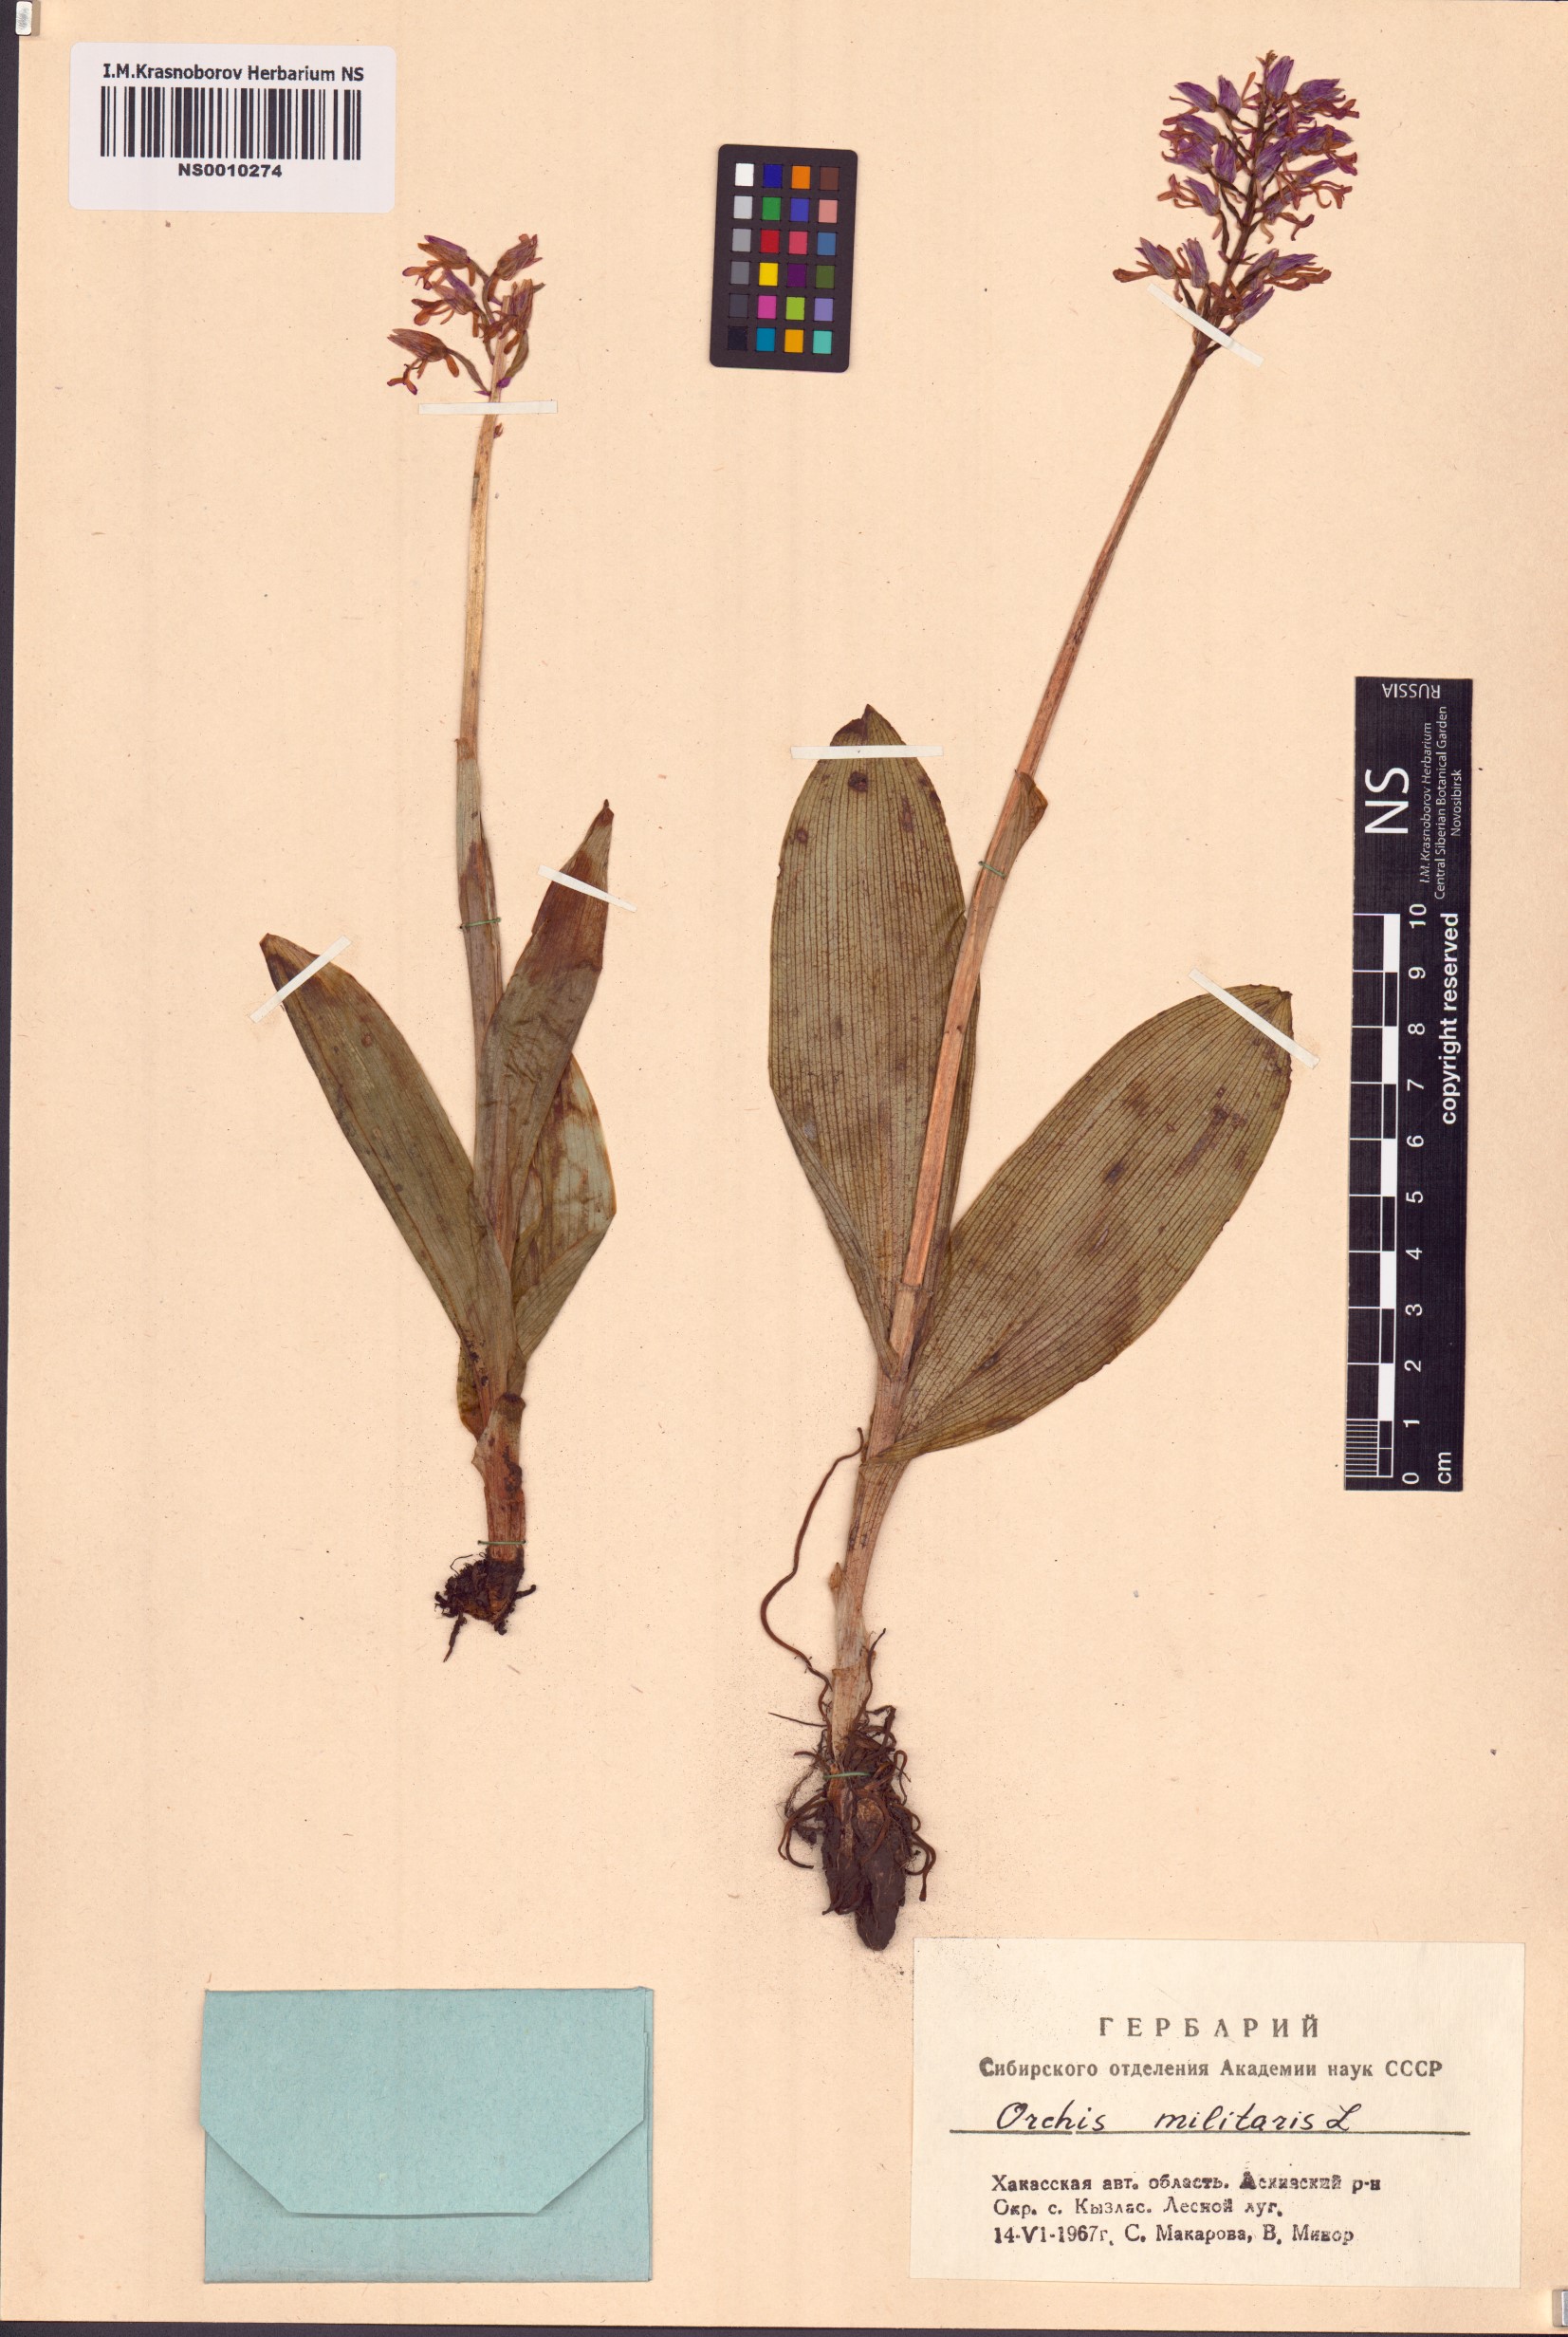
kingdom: Plantae
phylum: Tracheophyta
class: Liliopsida
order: Asparagales
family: Orchidaceae
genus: Orchis
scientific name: Orchis militaris
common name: Military orchid
